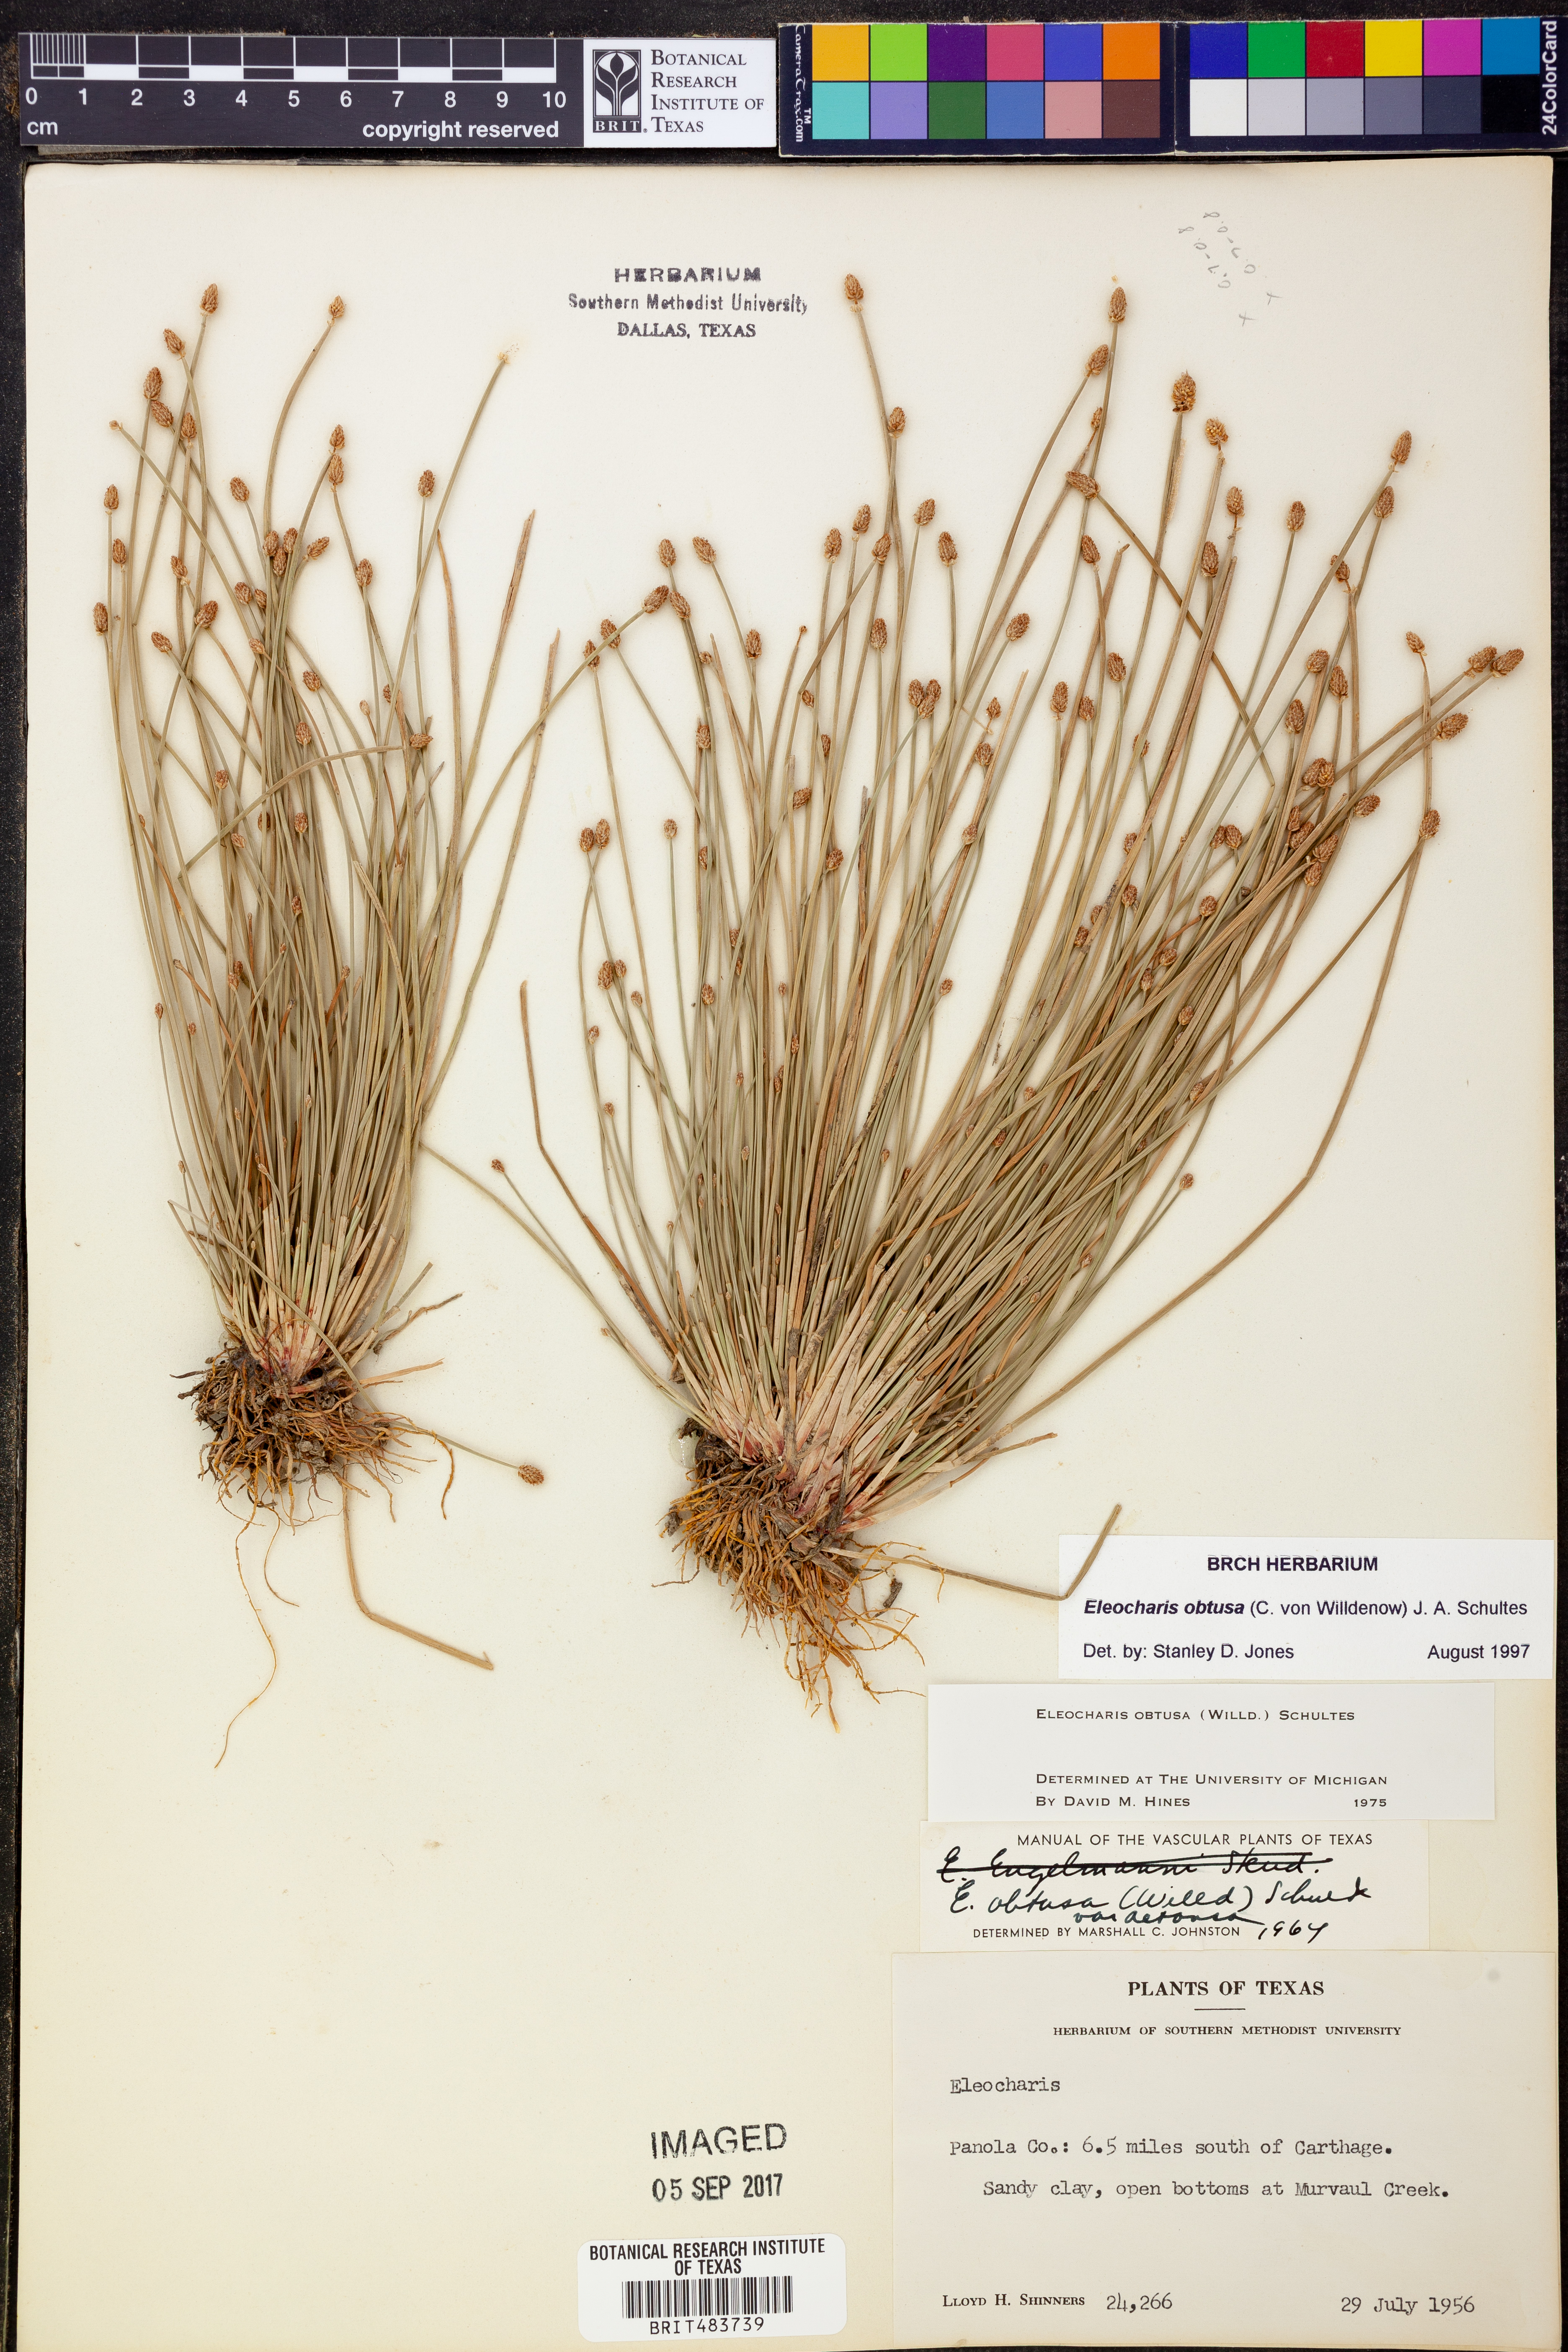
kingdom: Plantae
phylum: Tracheophyta
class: Liliopsida
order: Poales
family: Cyperaceae
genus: Eleocharis
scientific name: Eleocharis obtusa
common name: Blunt spikerush
